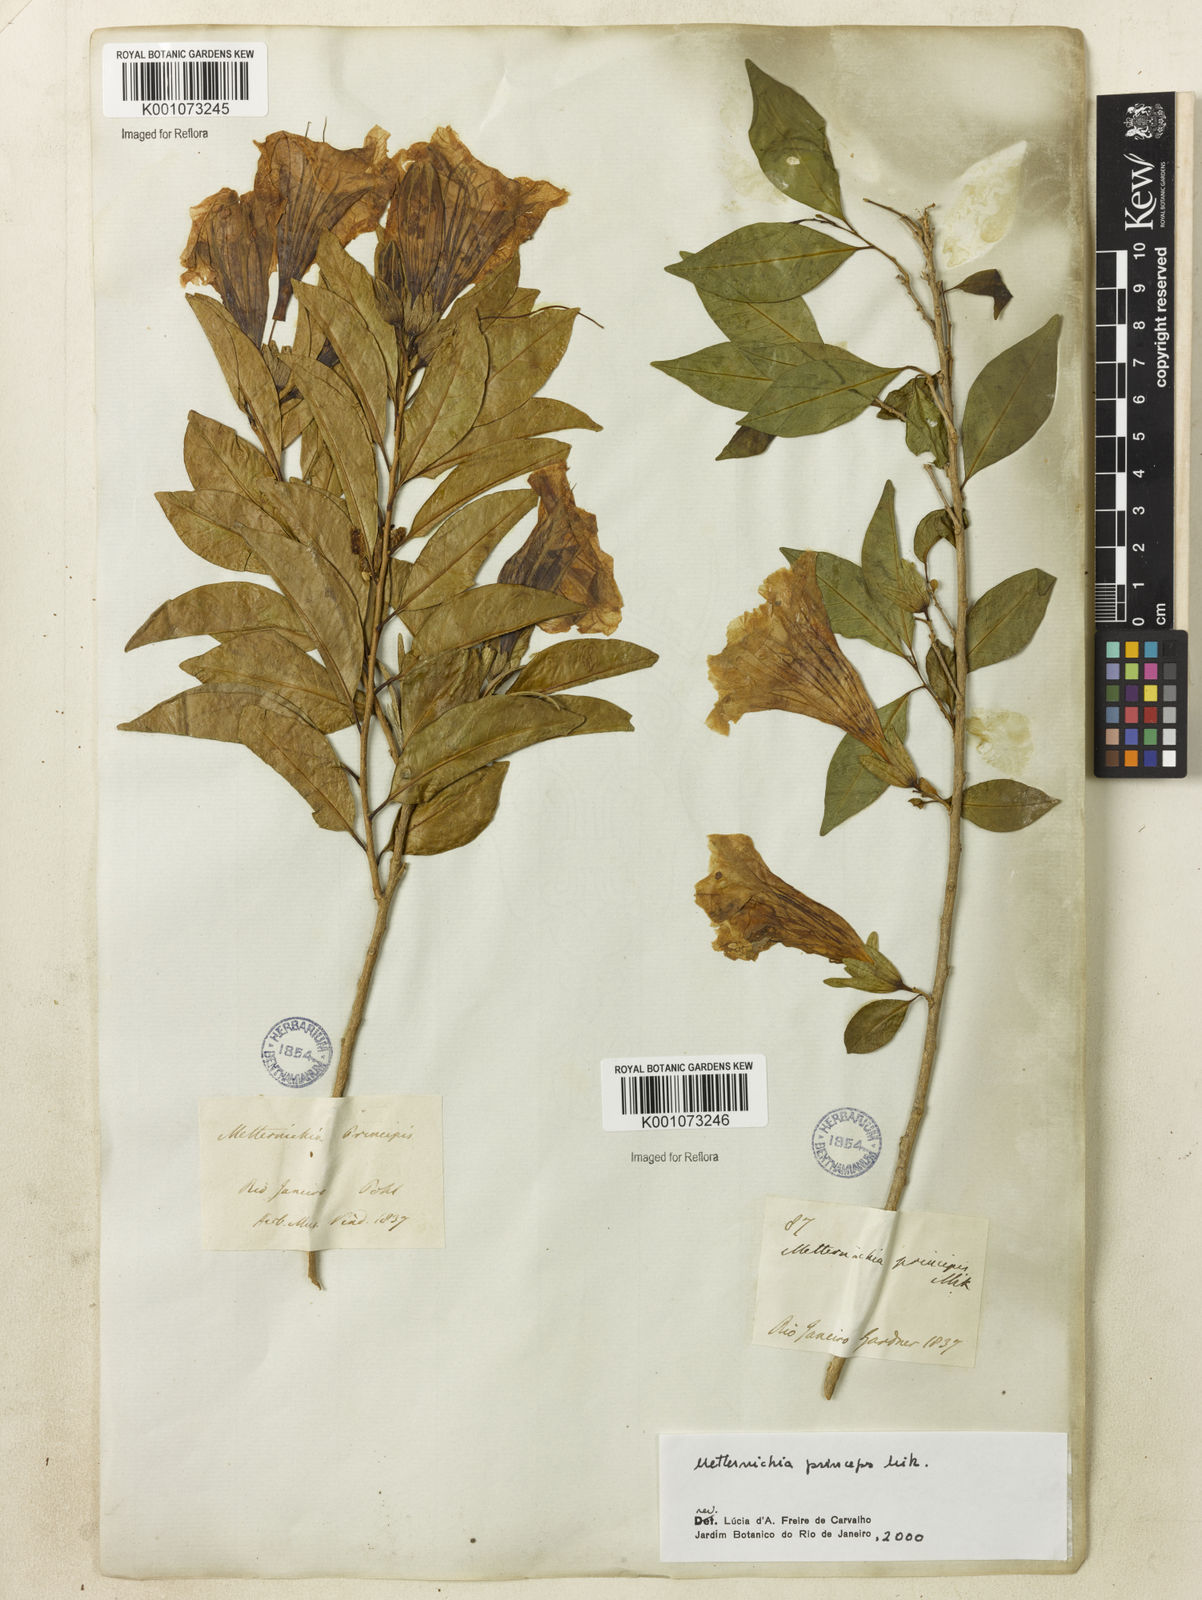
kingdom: Plantae
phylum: Tracheophyta
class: Magnoliopsida
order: Solanales
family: Solanaceae
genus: Metternichia
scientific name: Metternichia
